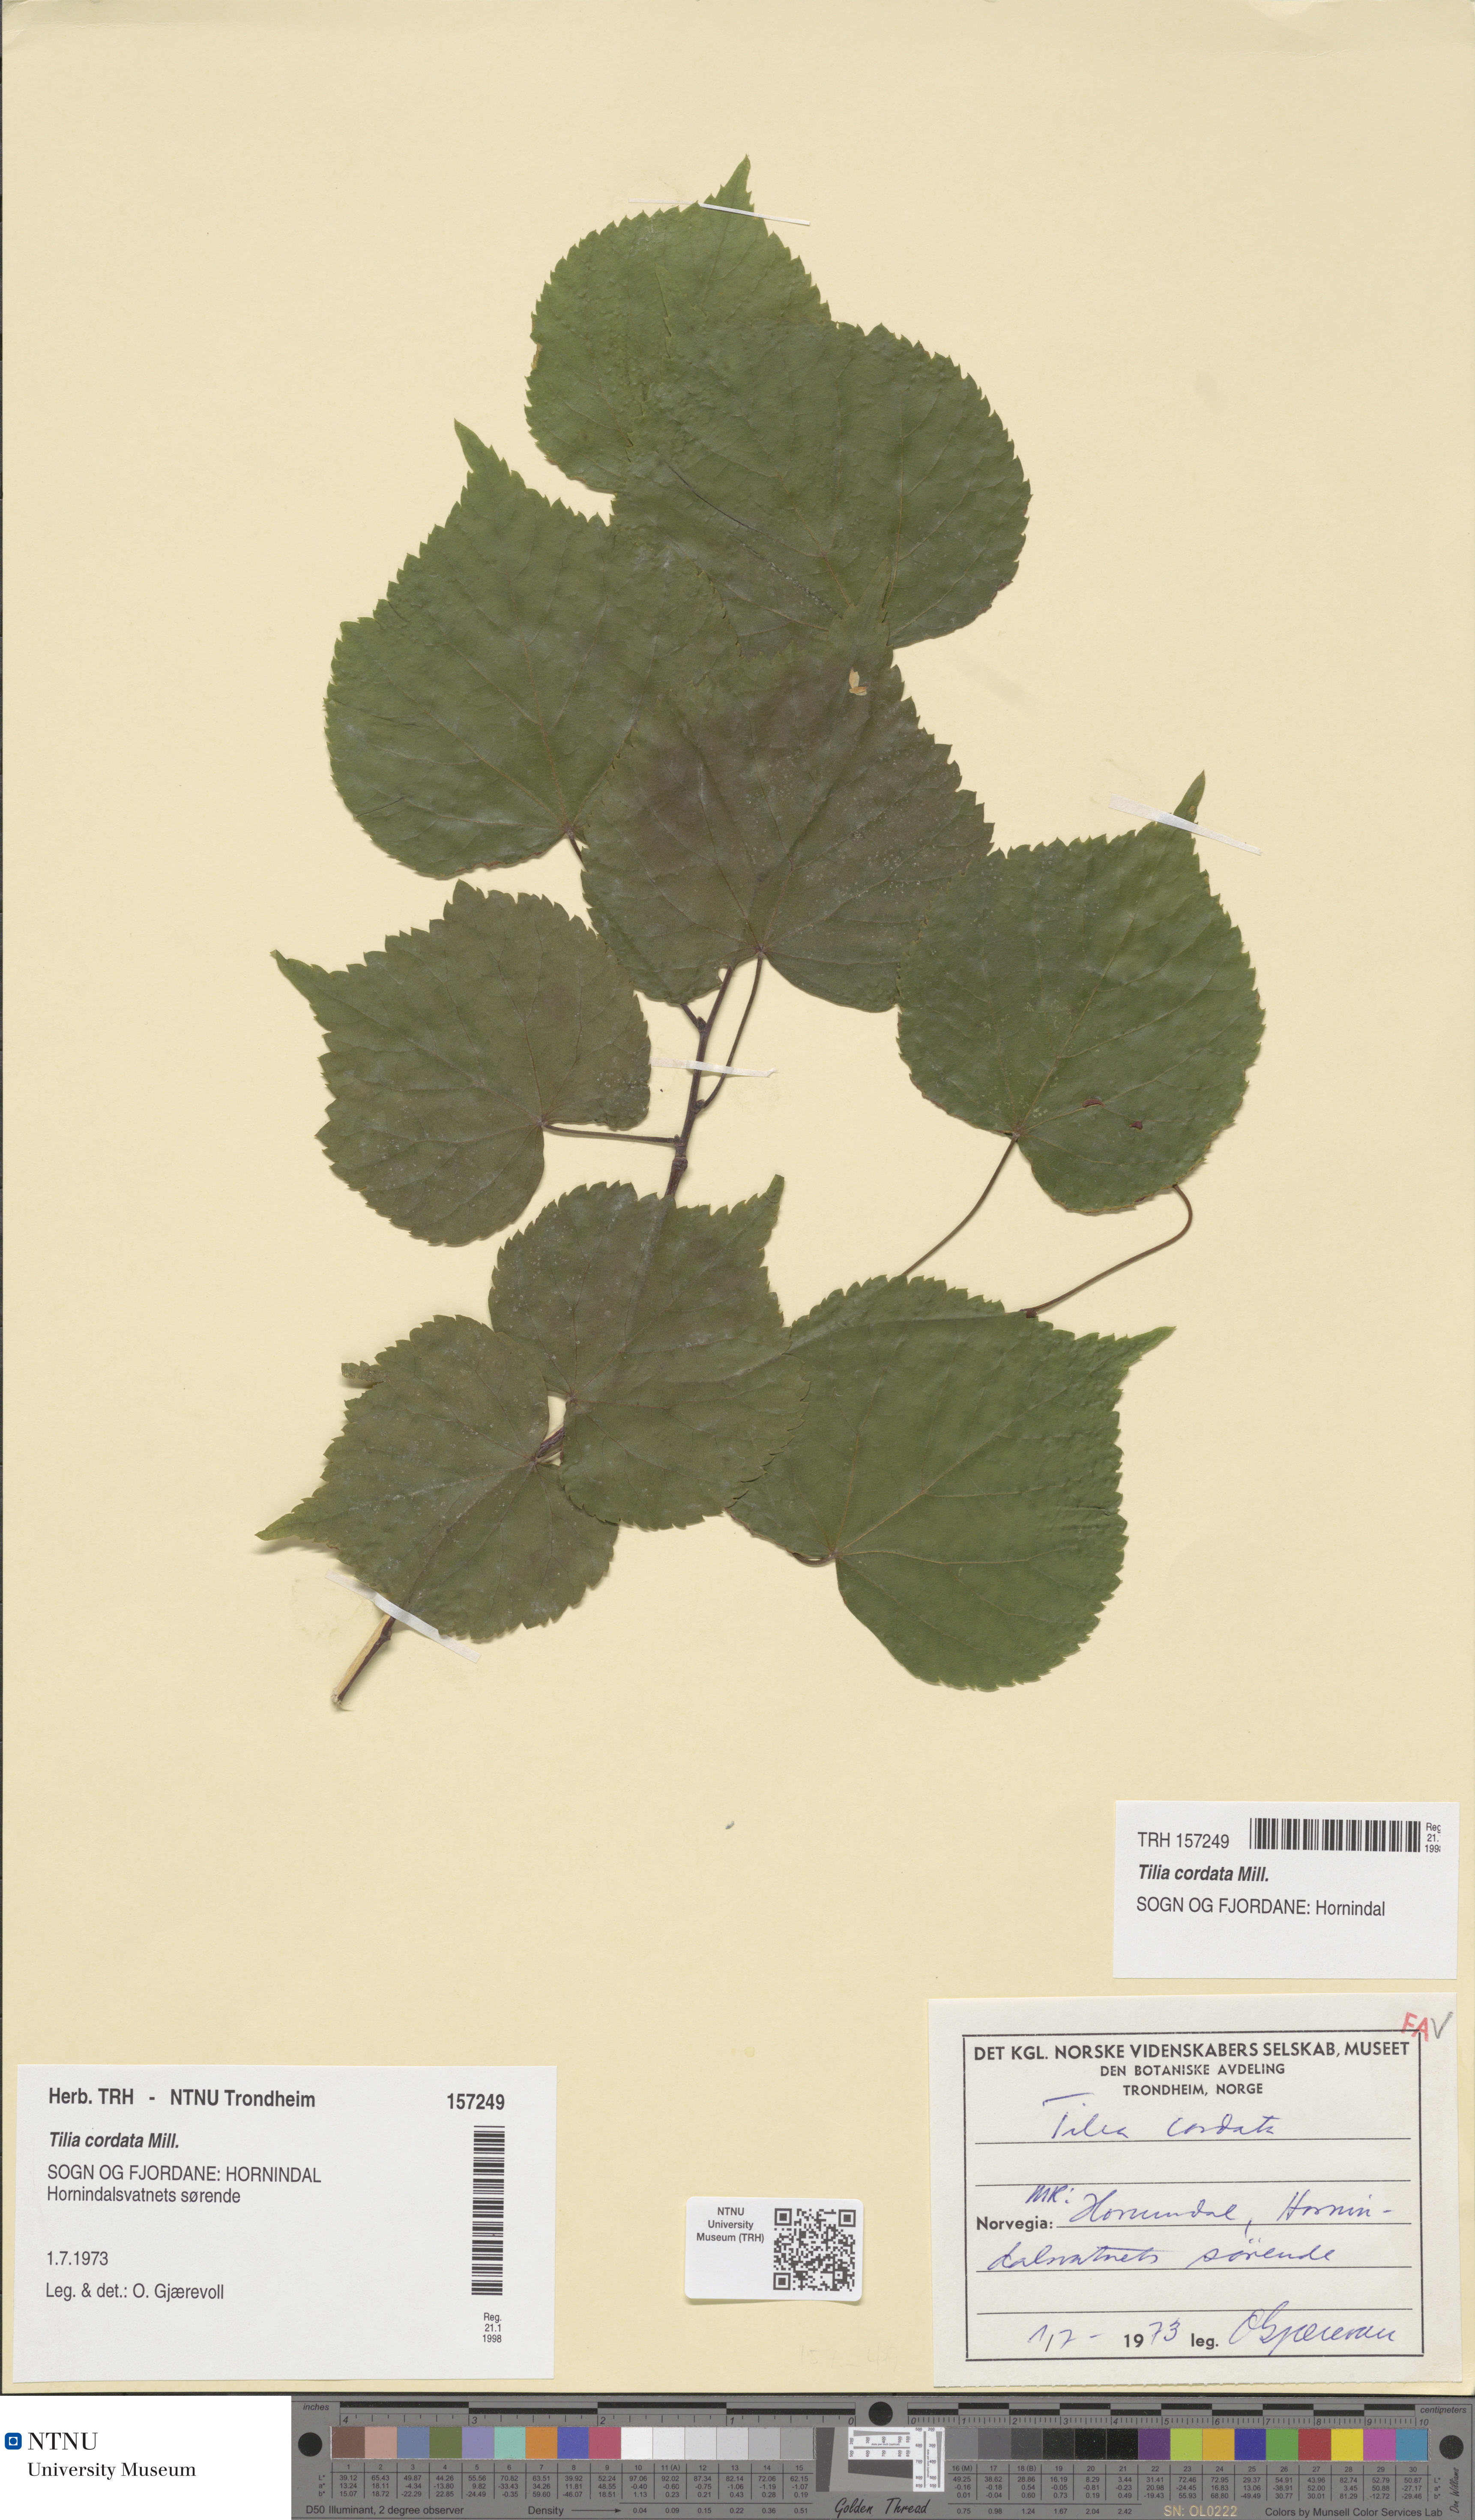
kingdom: Plantae
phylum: Tracheophyta
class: Magnoliopsida
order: Malvales
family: Malvaceae
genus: Tilia
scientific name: Tilia cordata
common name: Small-leaved lime
